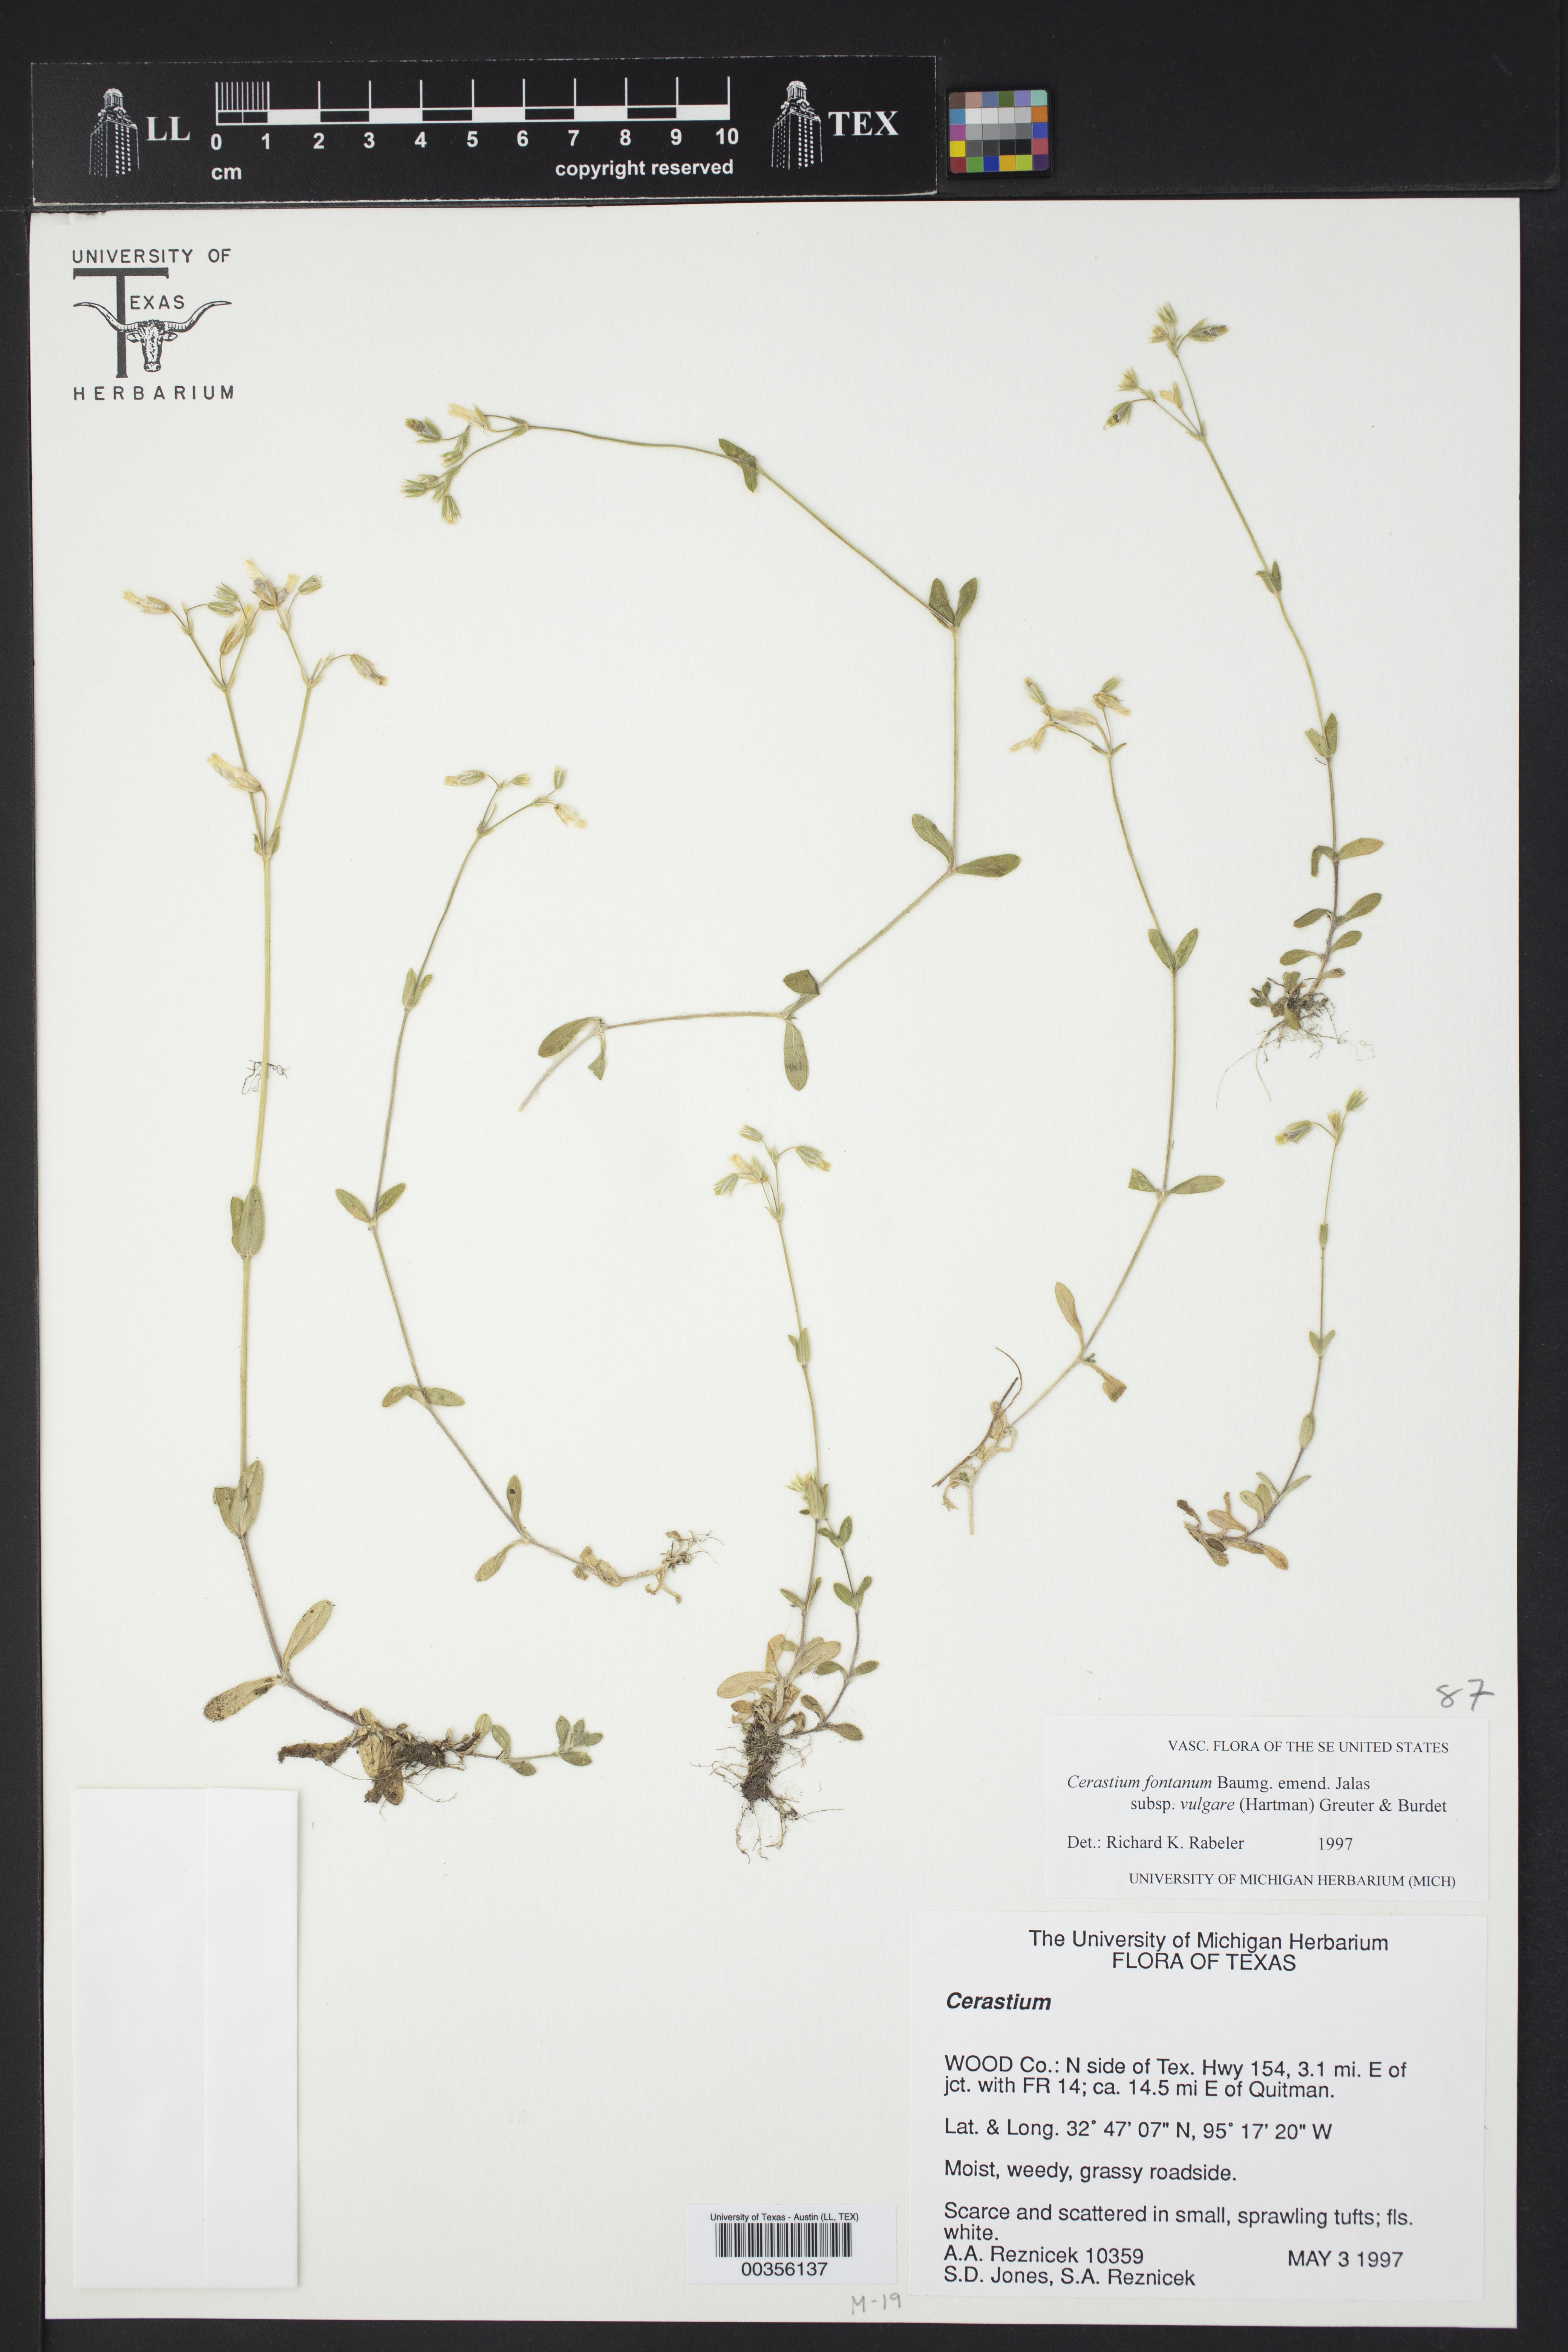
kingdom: Plantae
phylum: Tracheophyta
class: Magnoliopsida
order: Caryophyllales
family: Caryophyllaceae
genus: Cerastium
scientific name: Cerastium fontanum
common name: Common mouse-ear
